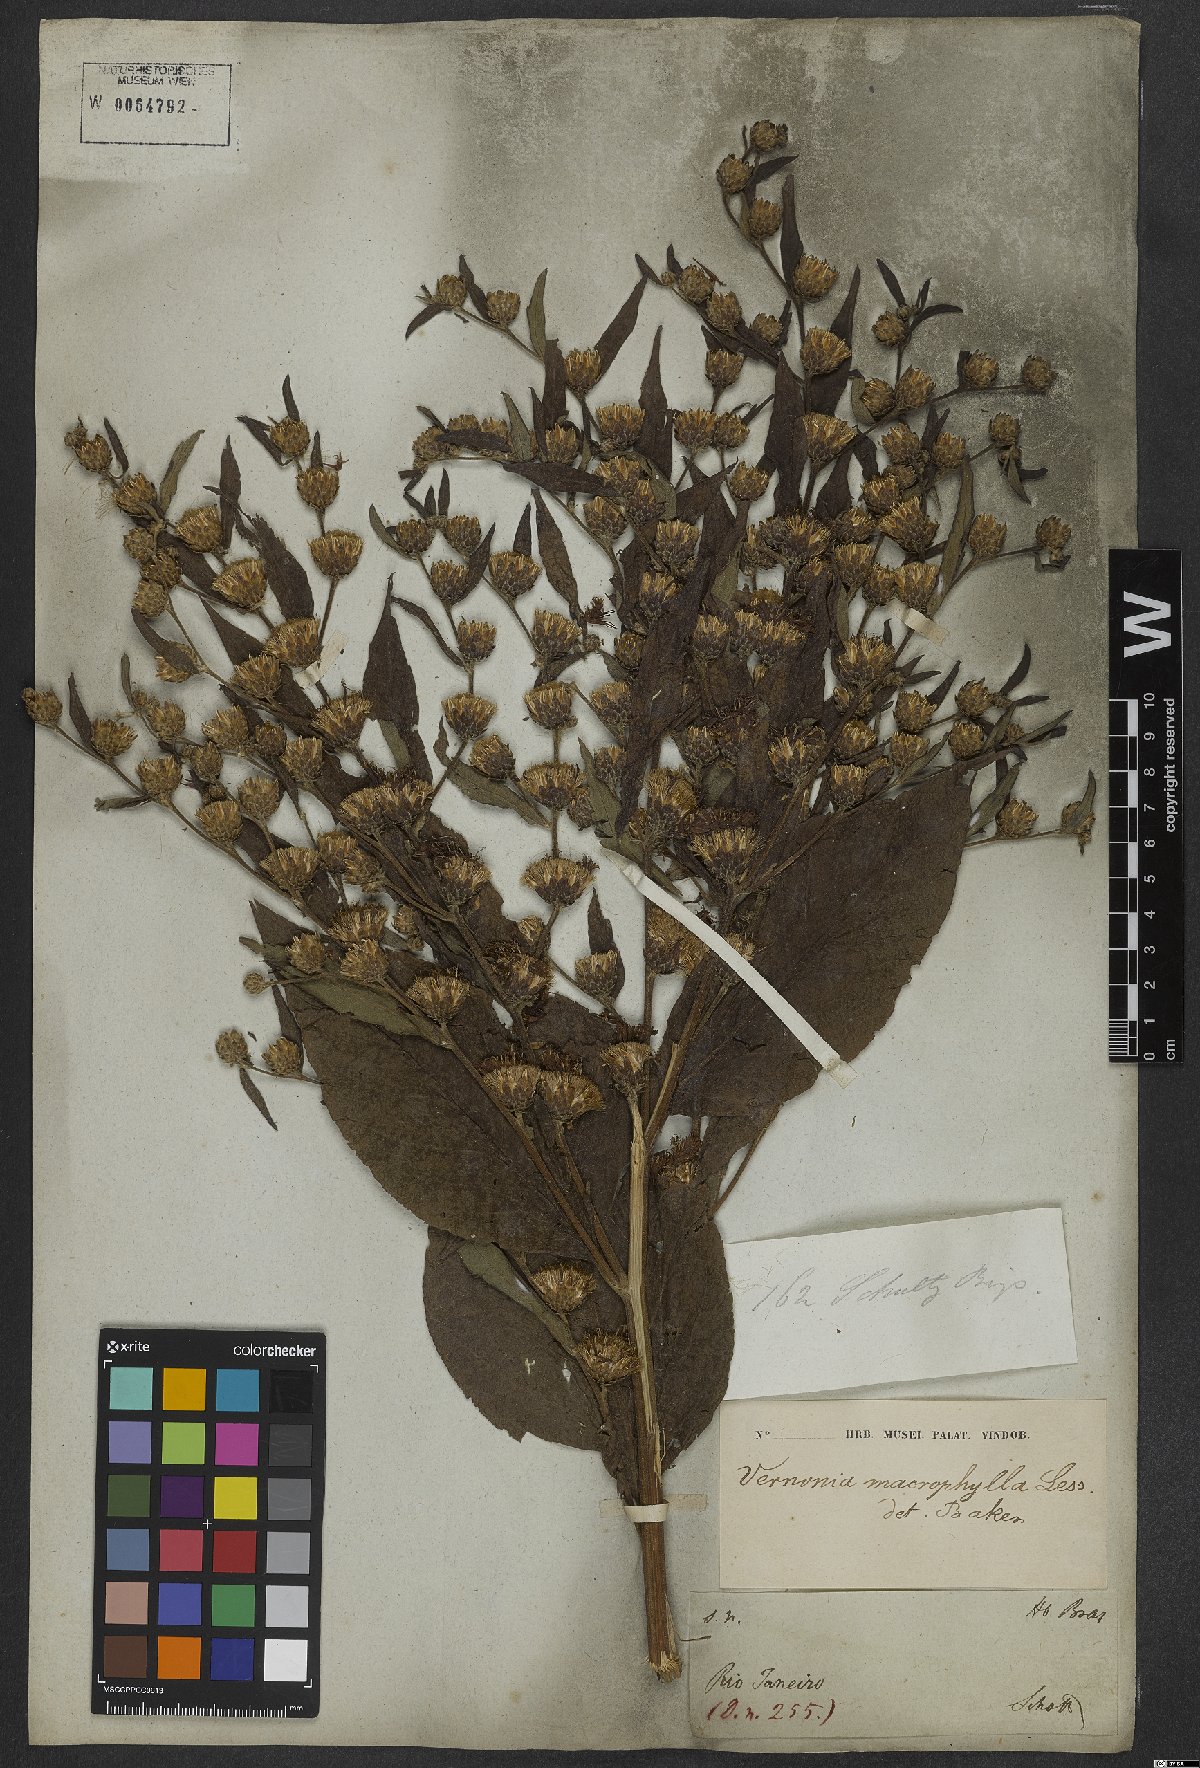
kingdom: Plantae
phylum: Tracheophyta
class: Magnoliopsida
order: Asterales
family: Asteraceae
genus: Gymnanthemum
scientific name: Gymnanthemum theophrastifolium
